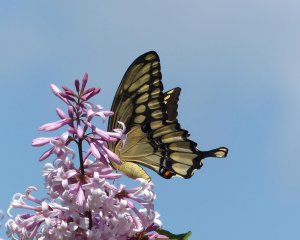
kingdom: Animalia
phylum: Arthropoda
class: Insecta
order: Lepidoptera
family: Papilionidae
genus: Papilio
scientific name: Papilio cresphontes
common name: Eastern Giant Swallowtail
